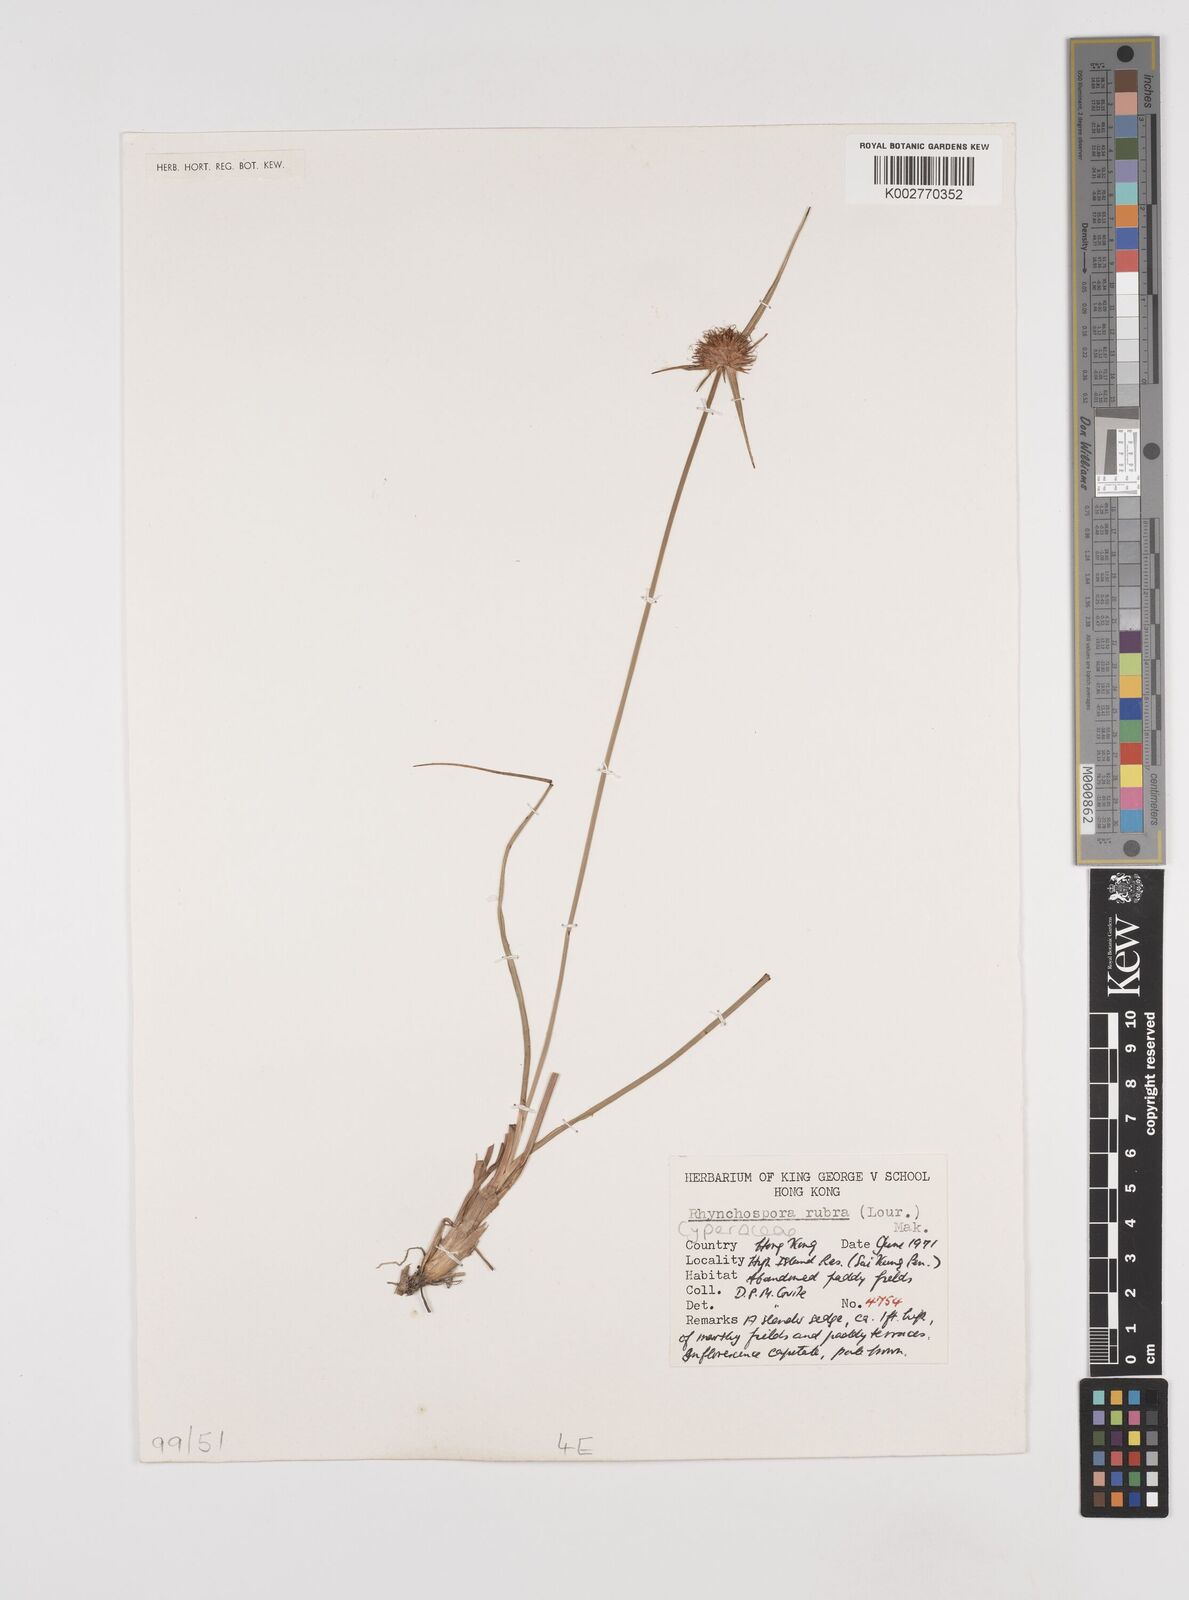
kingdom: Plantae
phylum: Tracheophyta
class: Liliopsida
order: Poales
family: Cyperaceae
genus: Rhynchospora
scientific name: Rhynchospora rubra
